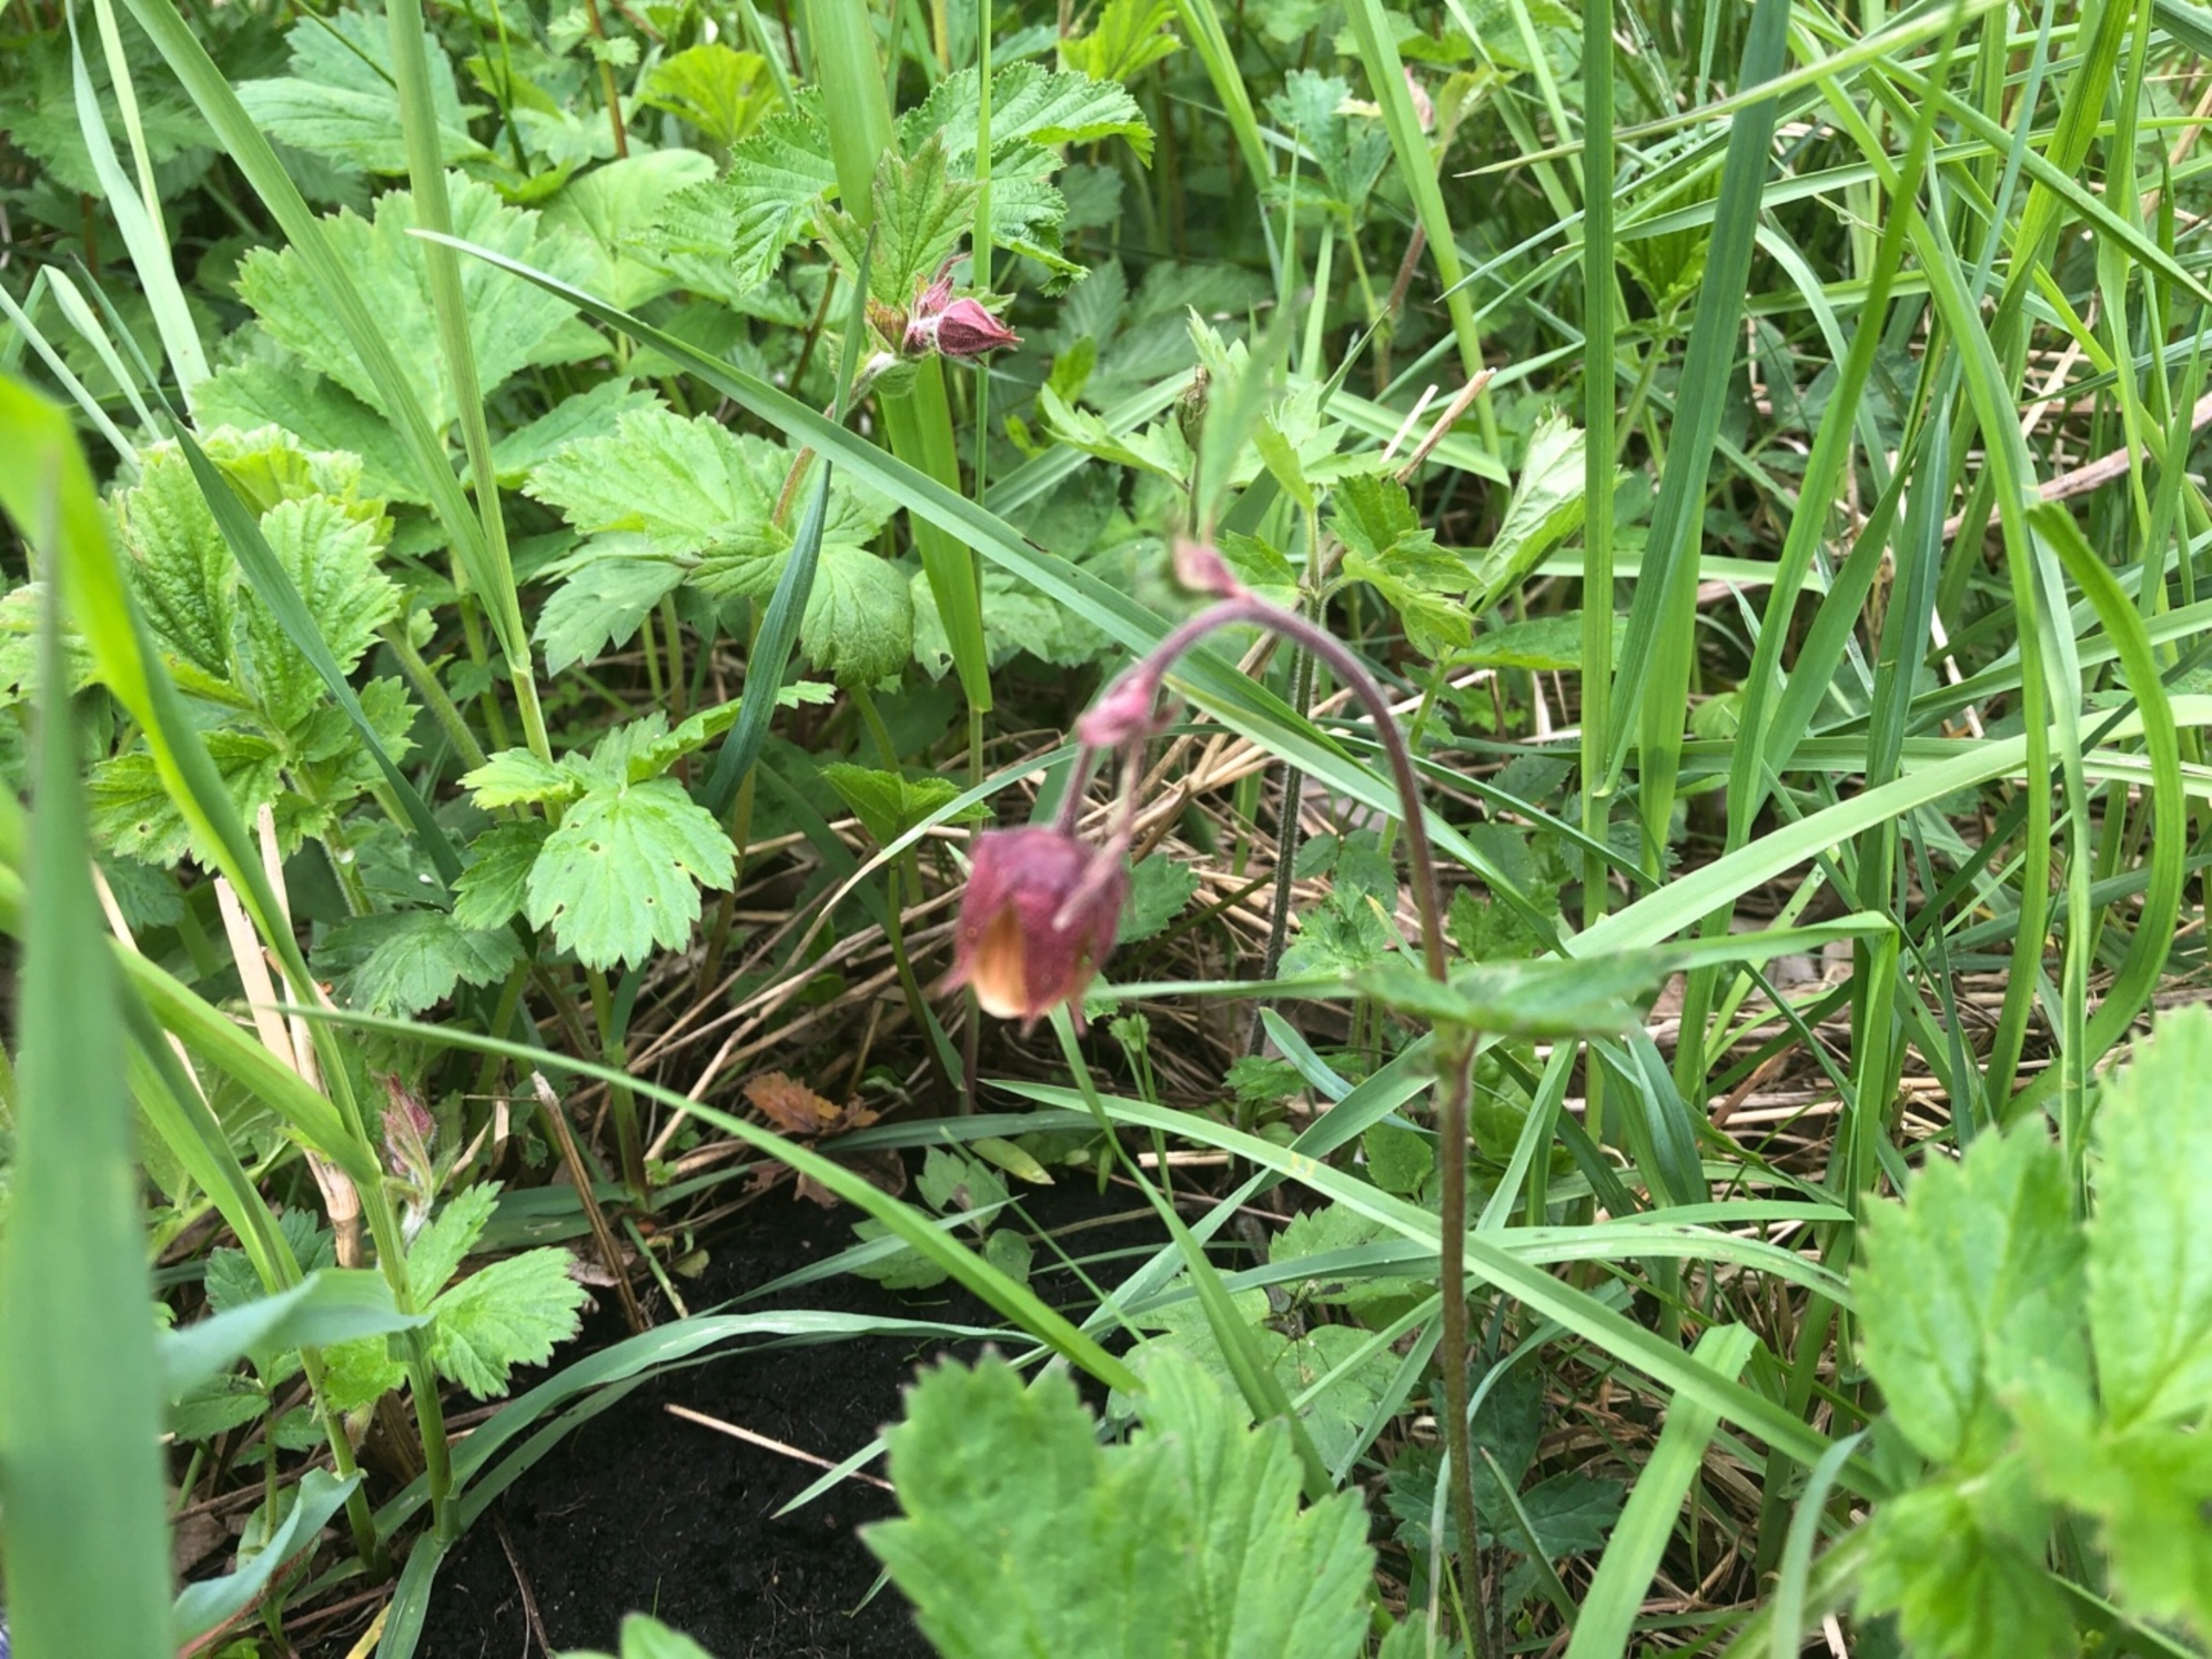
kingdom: Plantae
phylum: Tracheophyta
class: Magnoliopsida
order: Rosales
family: Rosaceae
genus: Geum
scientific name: Geum rivale
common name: Eng-nellikerod
